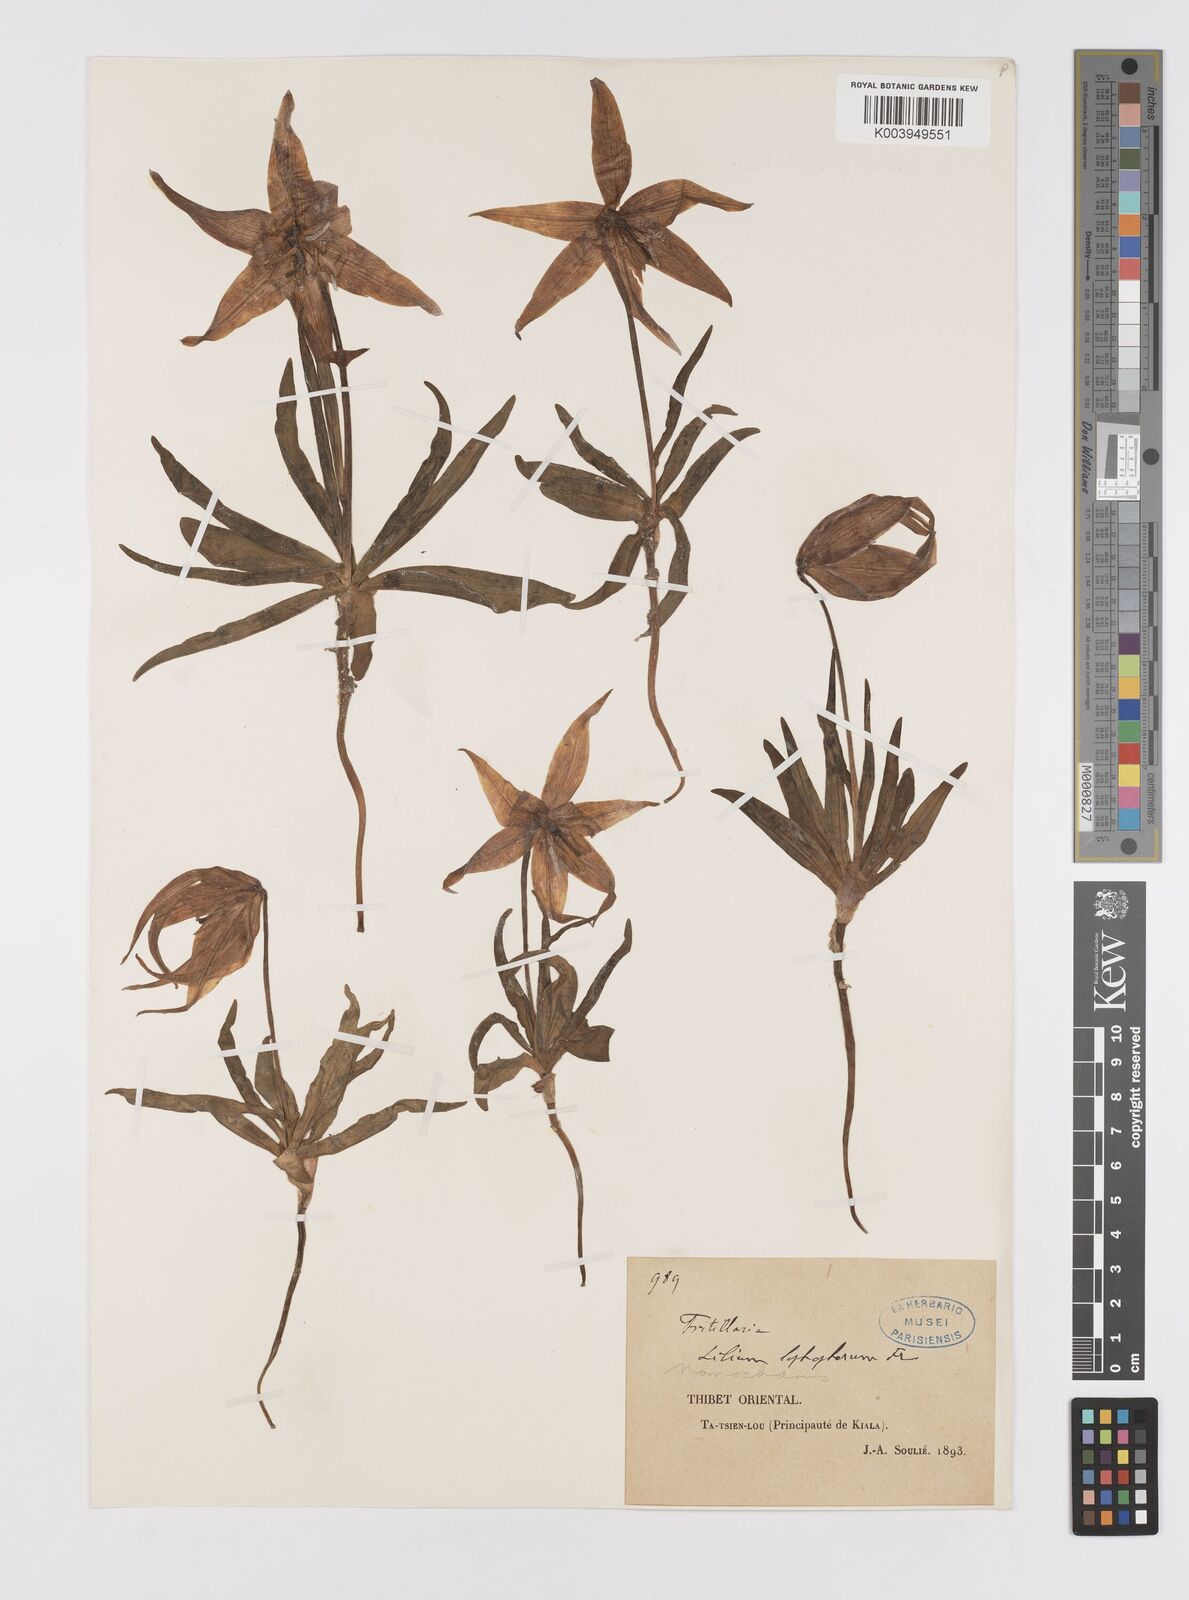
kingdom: Plantae
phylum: Tracheophyta
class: Liliopsida
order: Liliales
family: Liliaceae
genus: Lilium
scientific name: Lilium lophophorum
